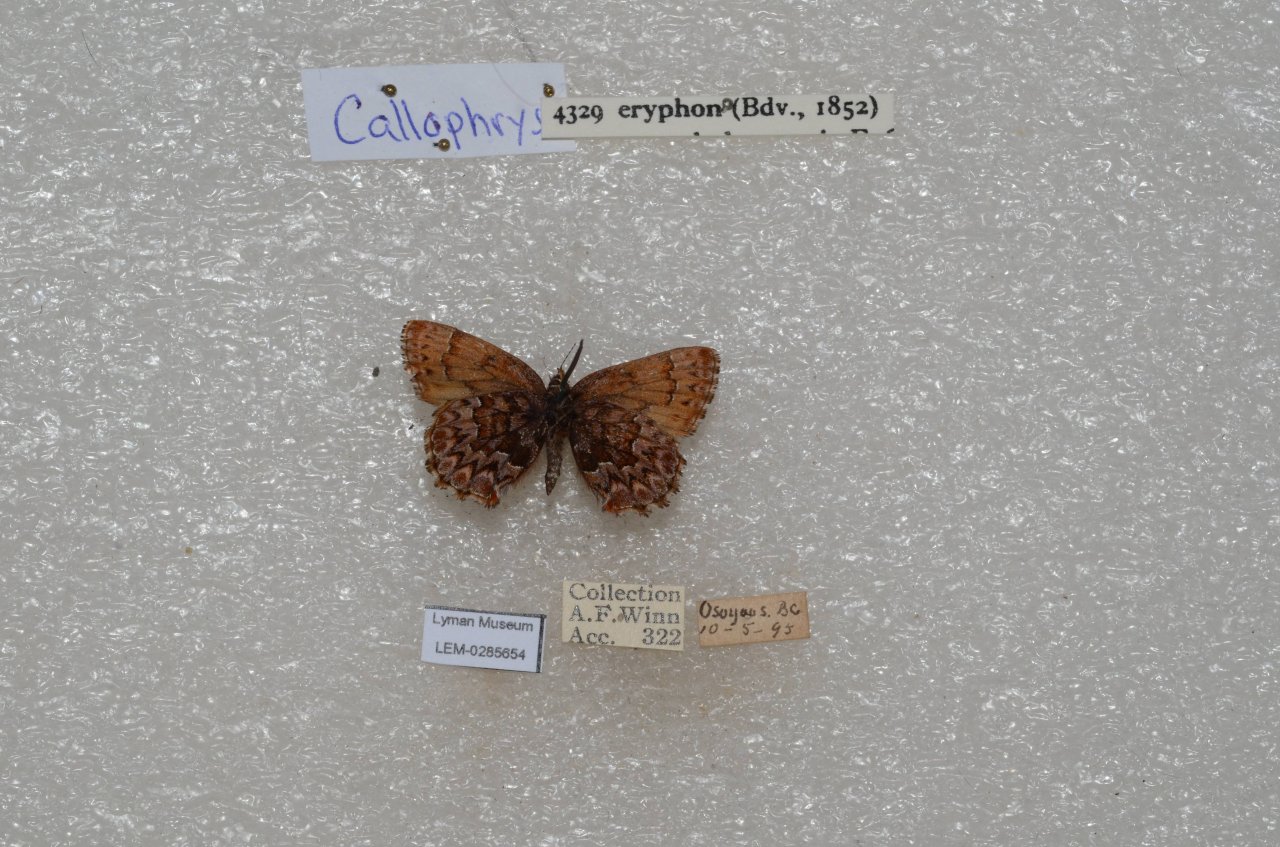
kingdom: Animalia
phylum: Arthropoda
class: Insecta
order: Lepidoptera
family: Lycaenidae
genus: Incisalia
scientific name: Incisalia eryphon
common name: Western Pine Elfin
